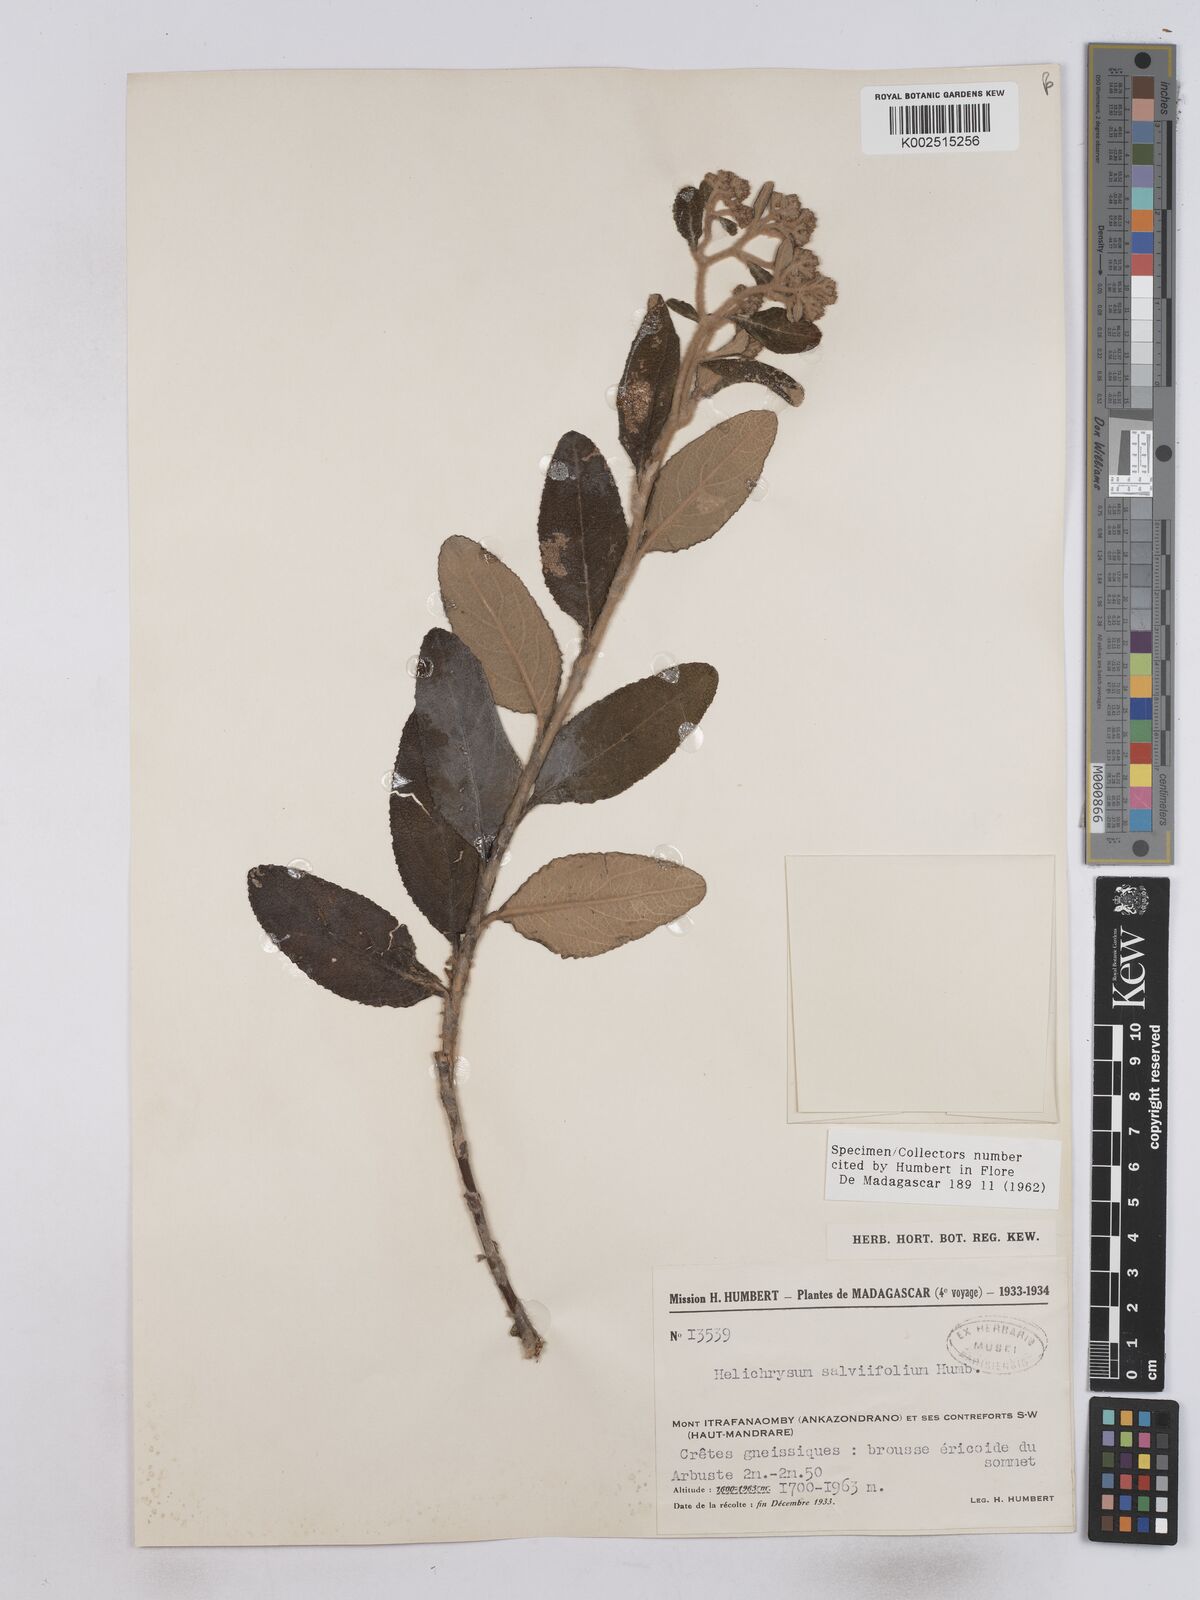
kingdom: Plantae
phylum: Tracheophyta
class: Magnoliopsida
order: Asterales
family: Asteraceae
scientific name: Asteraceae
